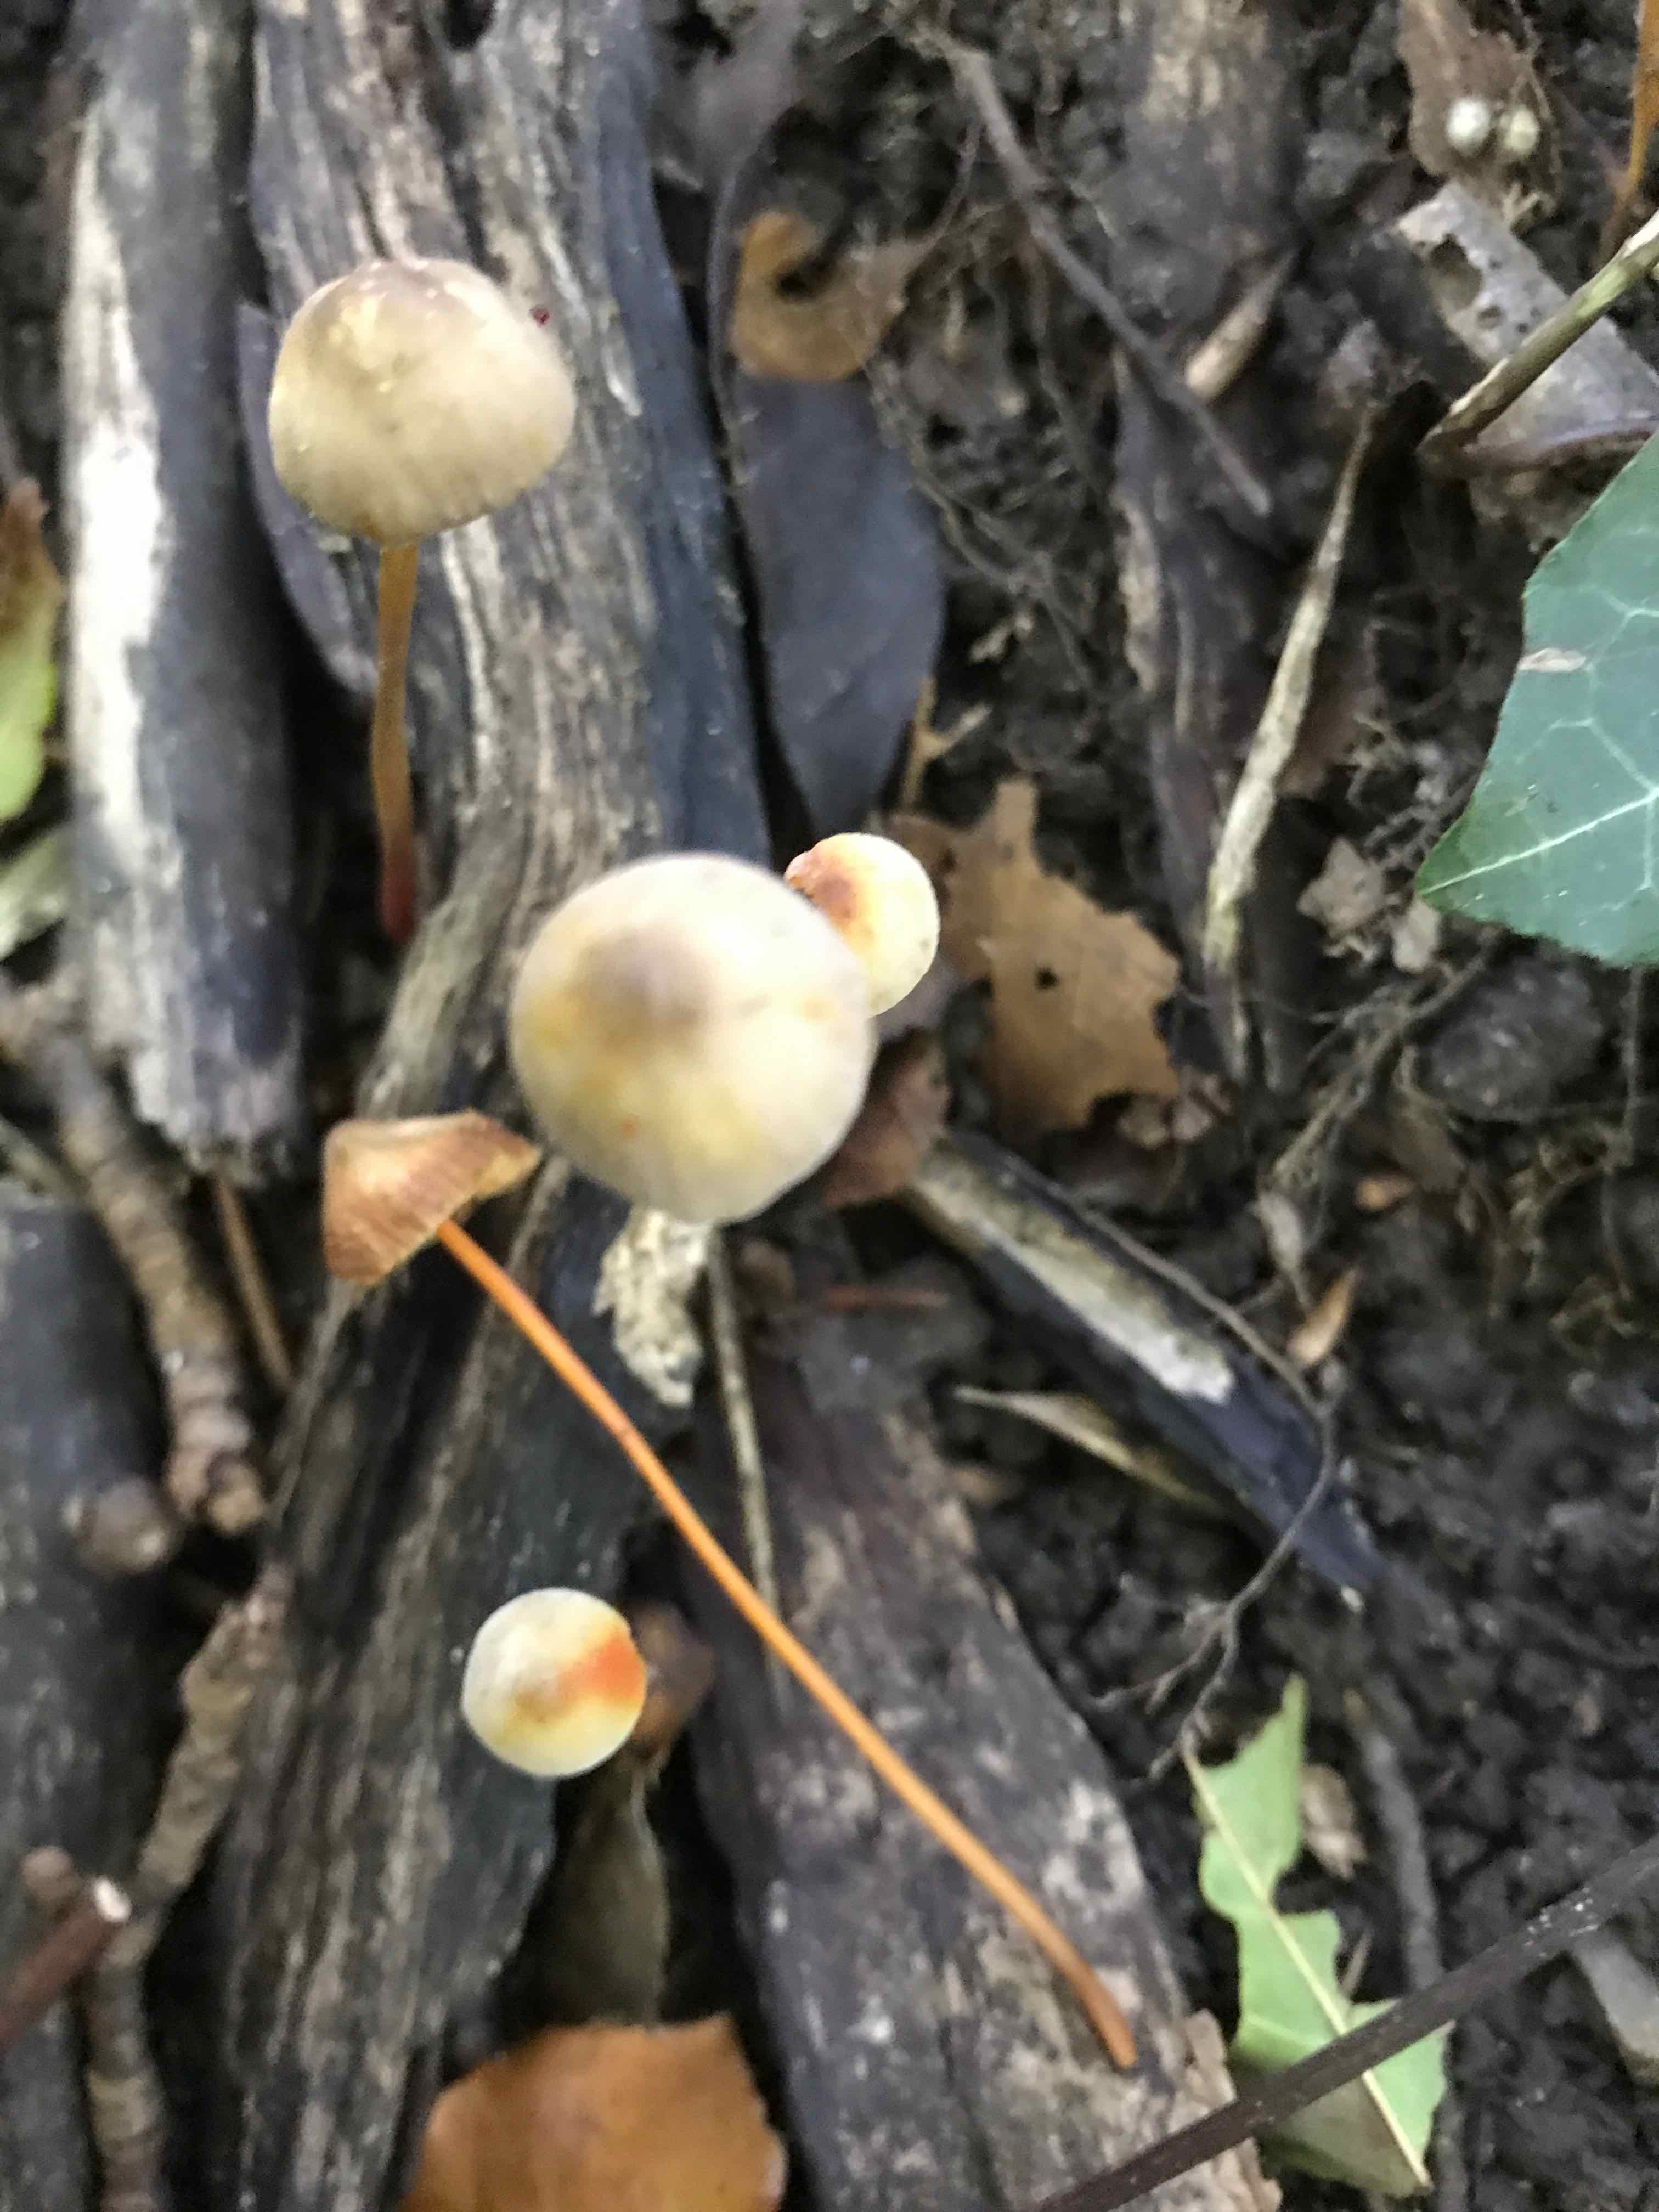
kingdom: Fungi
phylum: Basidiomycota
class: Agaricomycetes
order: Agaricales
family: Mycenaceae
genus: Mycena
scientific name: Mycena crocata
